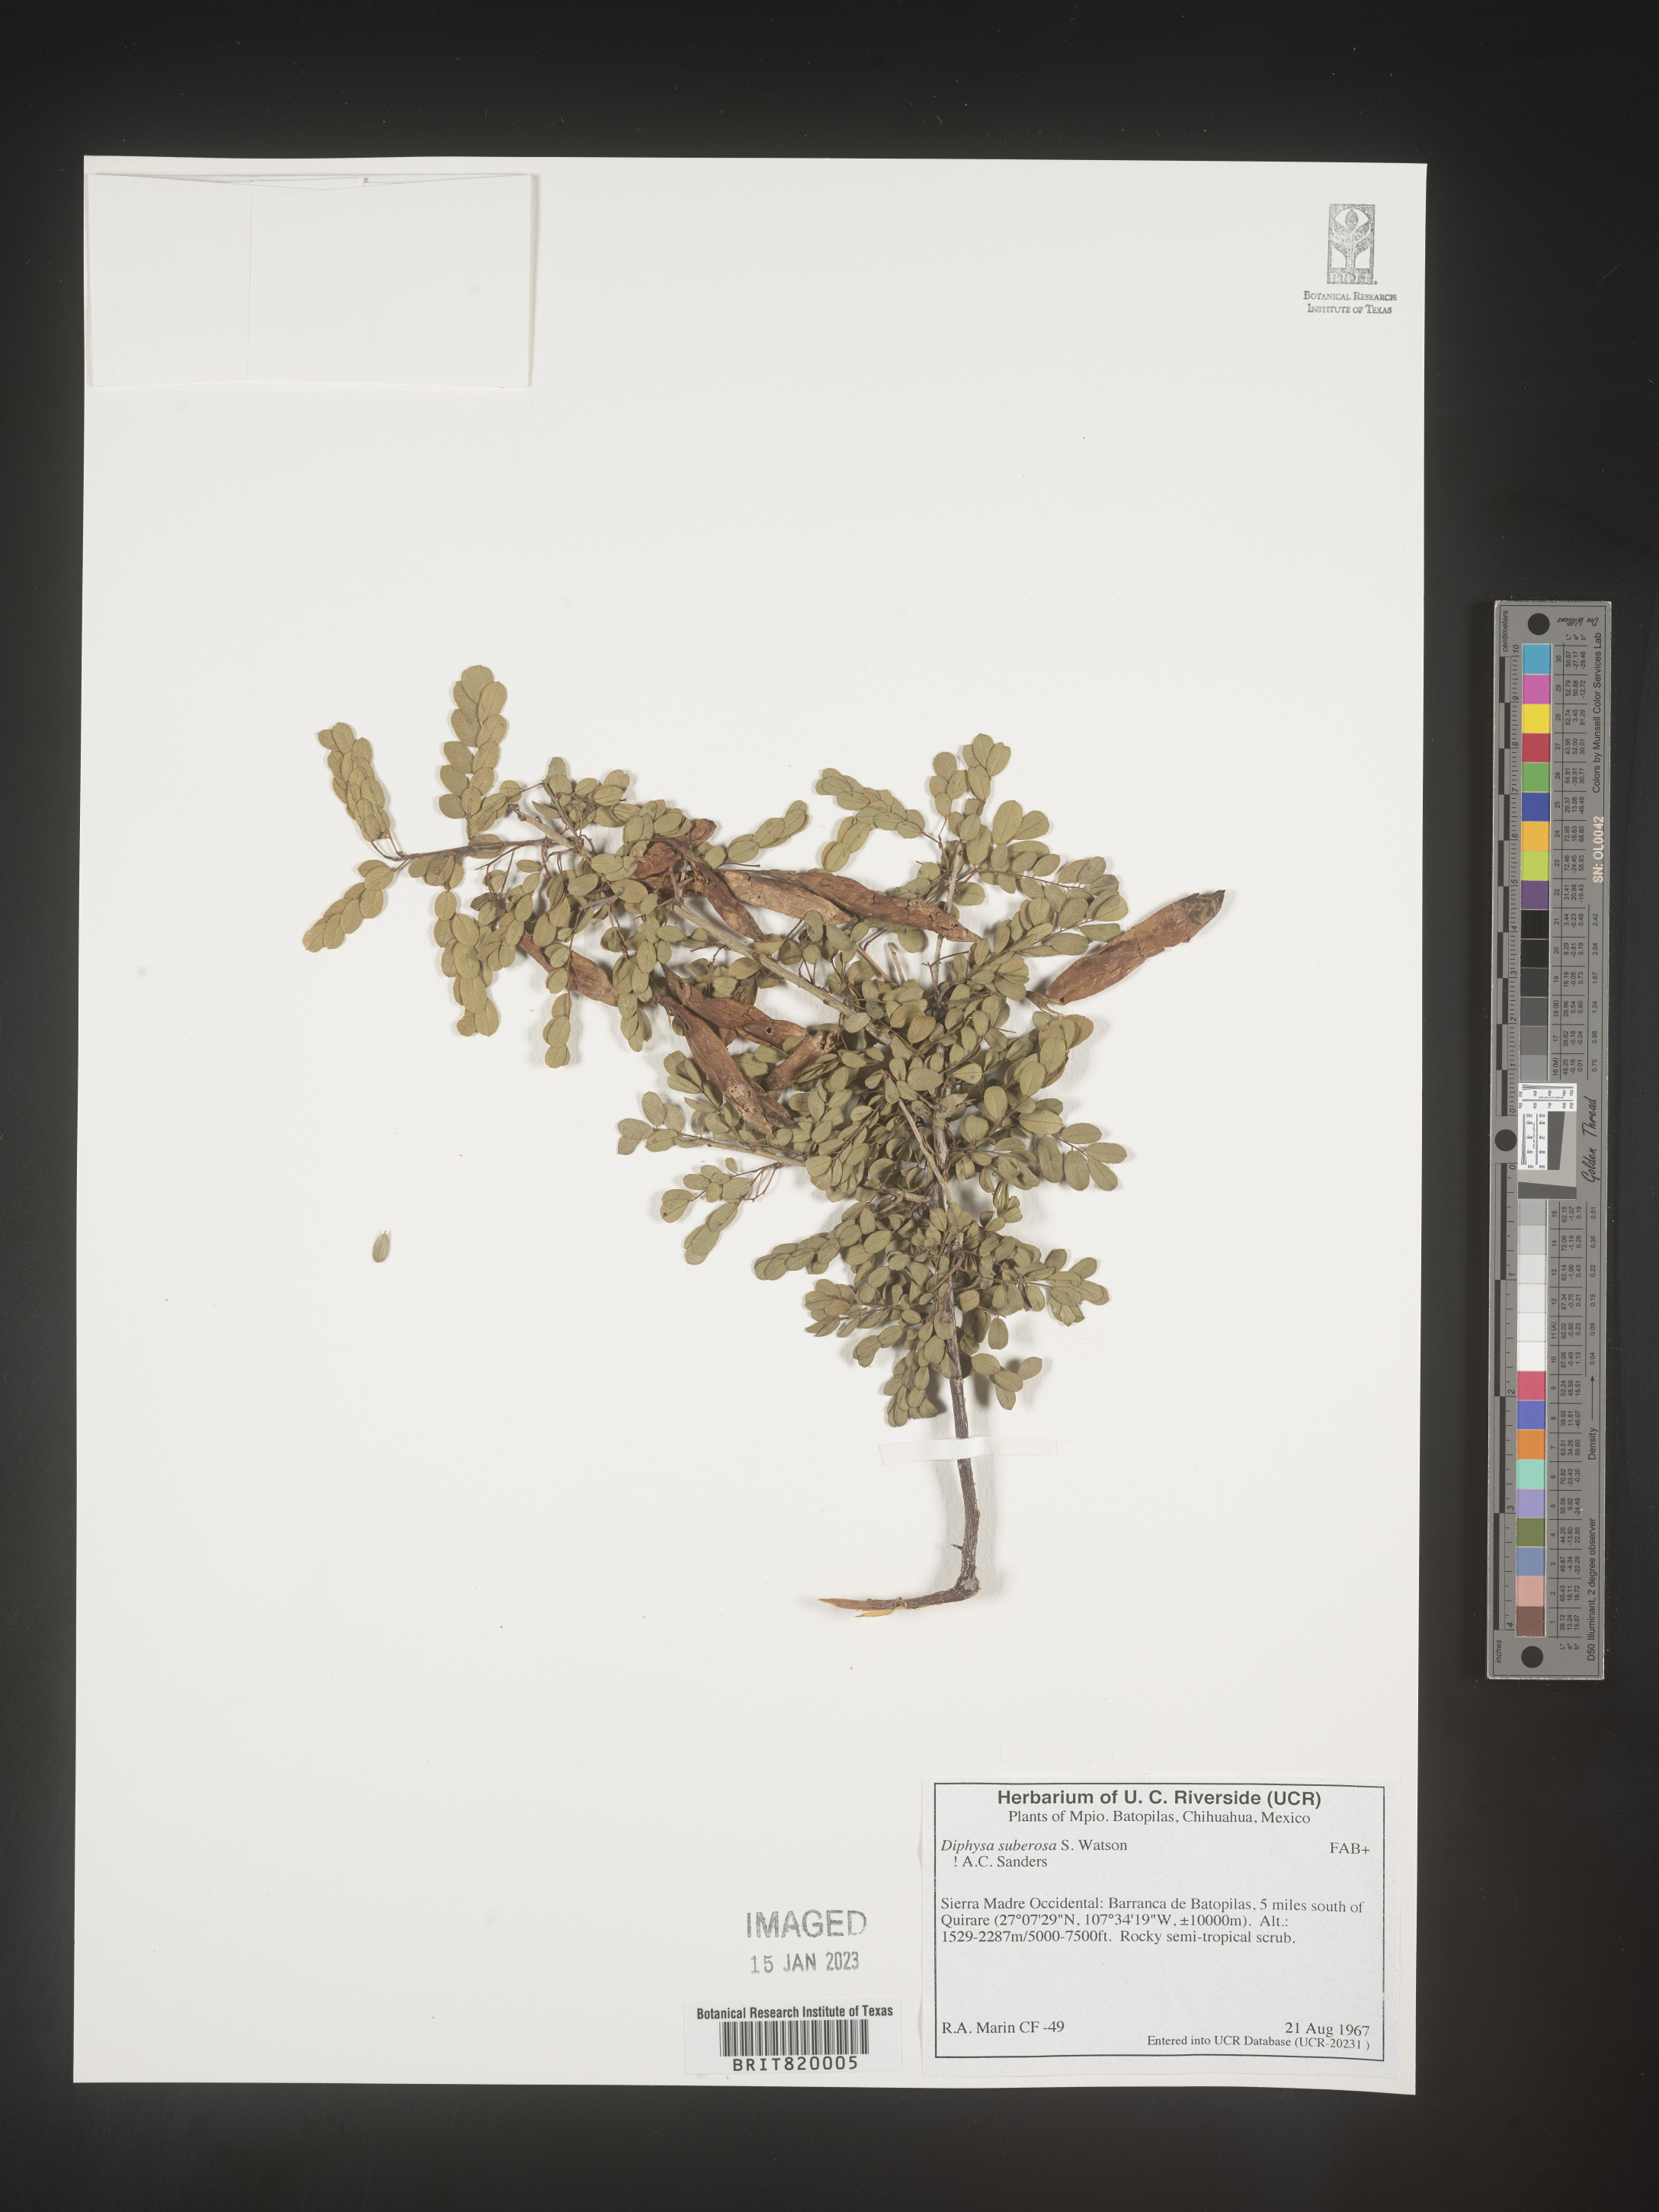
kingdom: Plantae
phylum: Tracheophyta
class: Magnoliopsida
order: Fabales
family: Fabaceae
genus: Diphysa
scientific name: Diphysa
